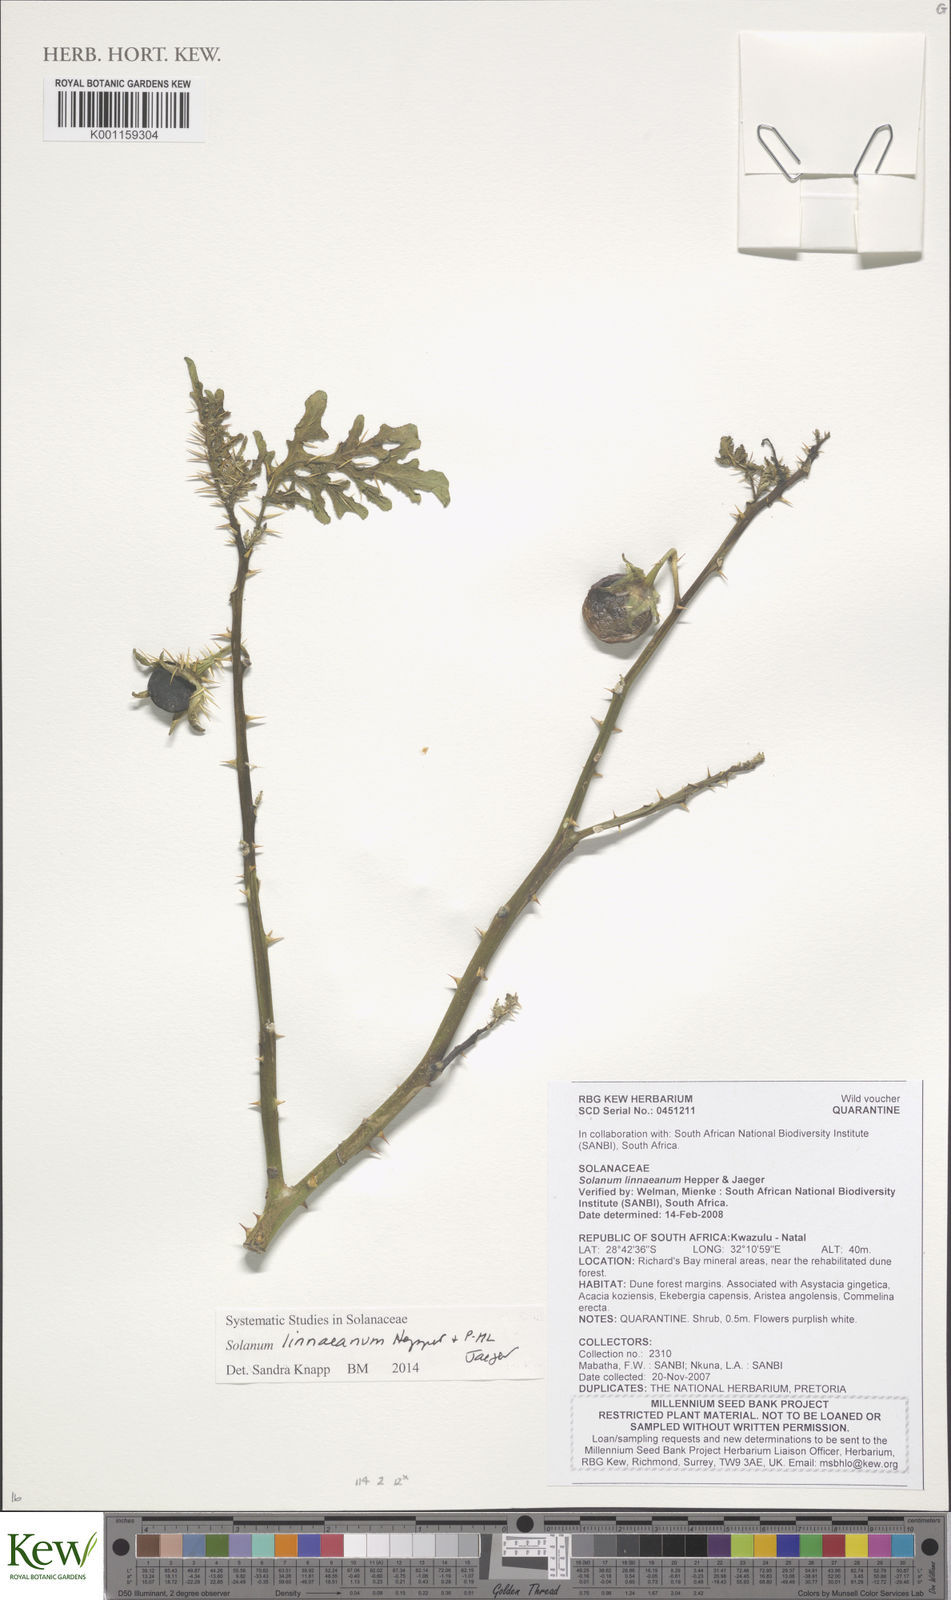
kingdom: Plantae
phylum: Tracheophyta
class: Magnoliopsida
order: Solanales
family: Solanaceae
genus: Solanum
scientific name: Solanum
